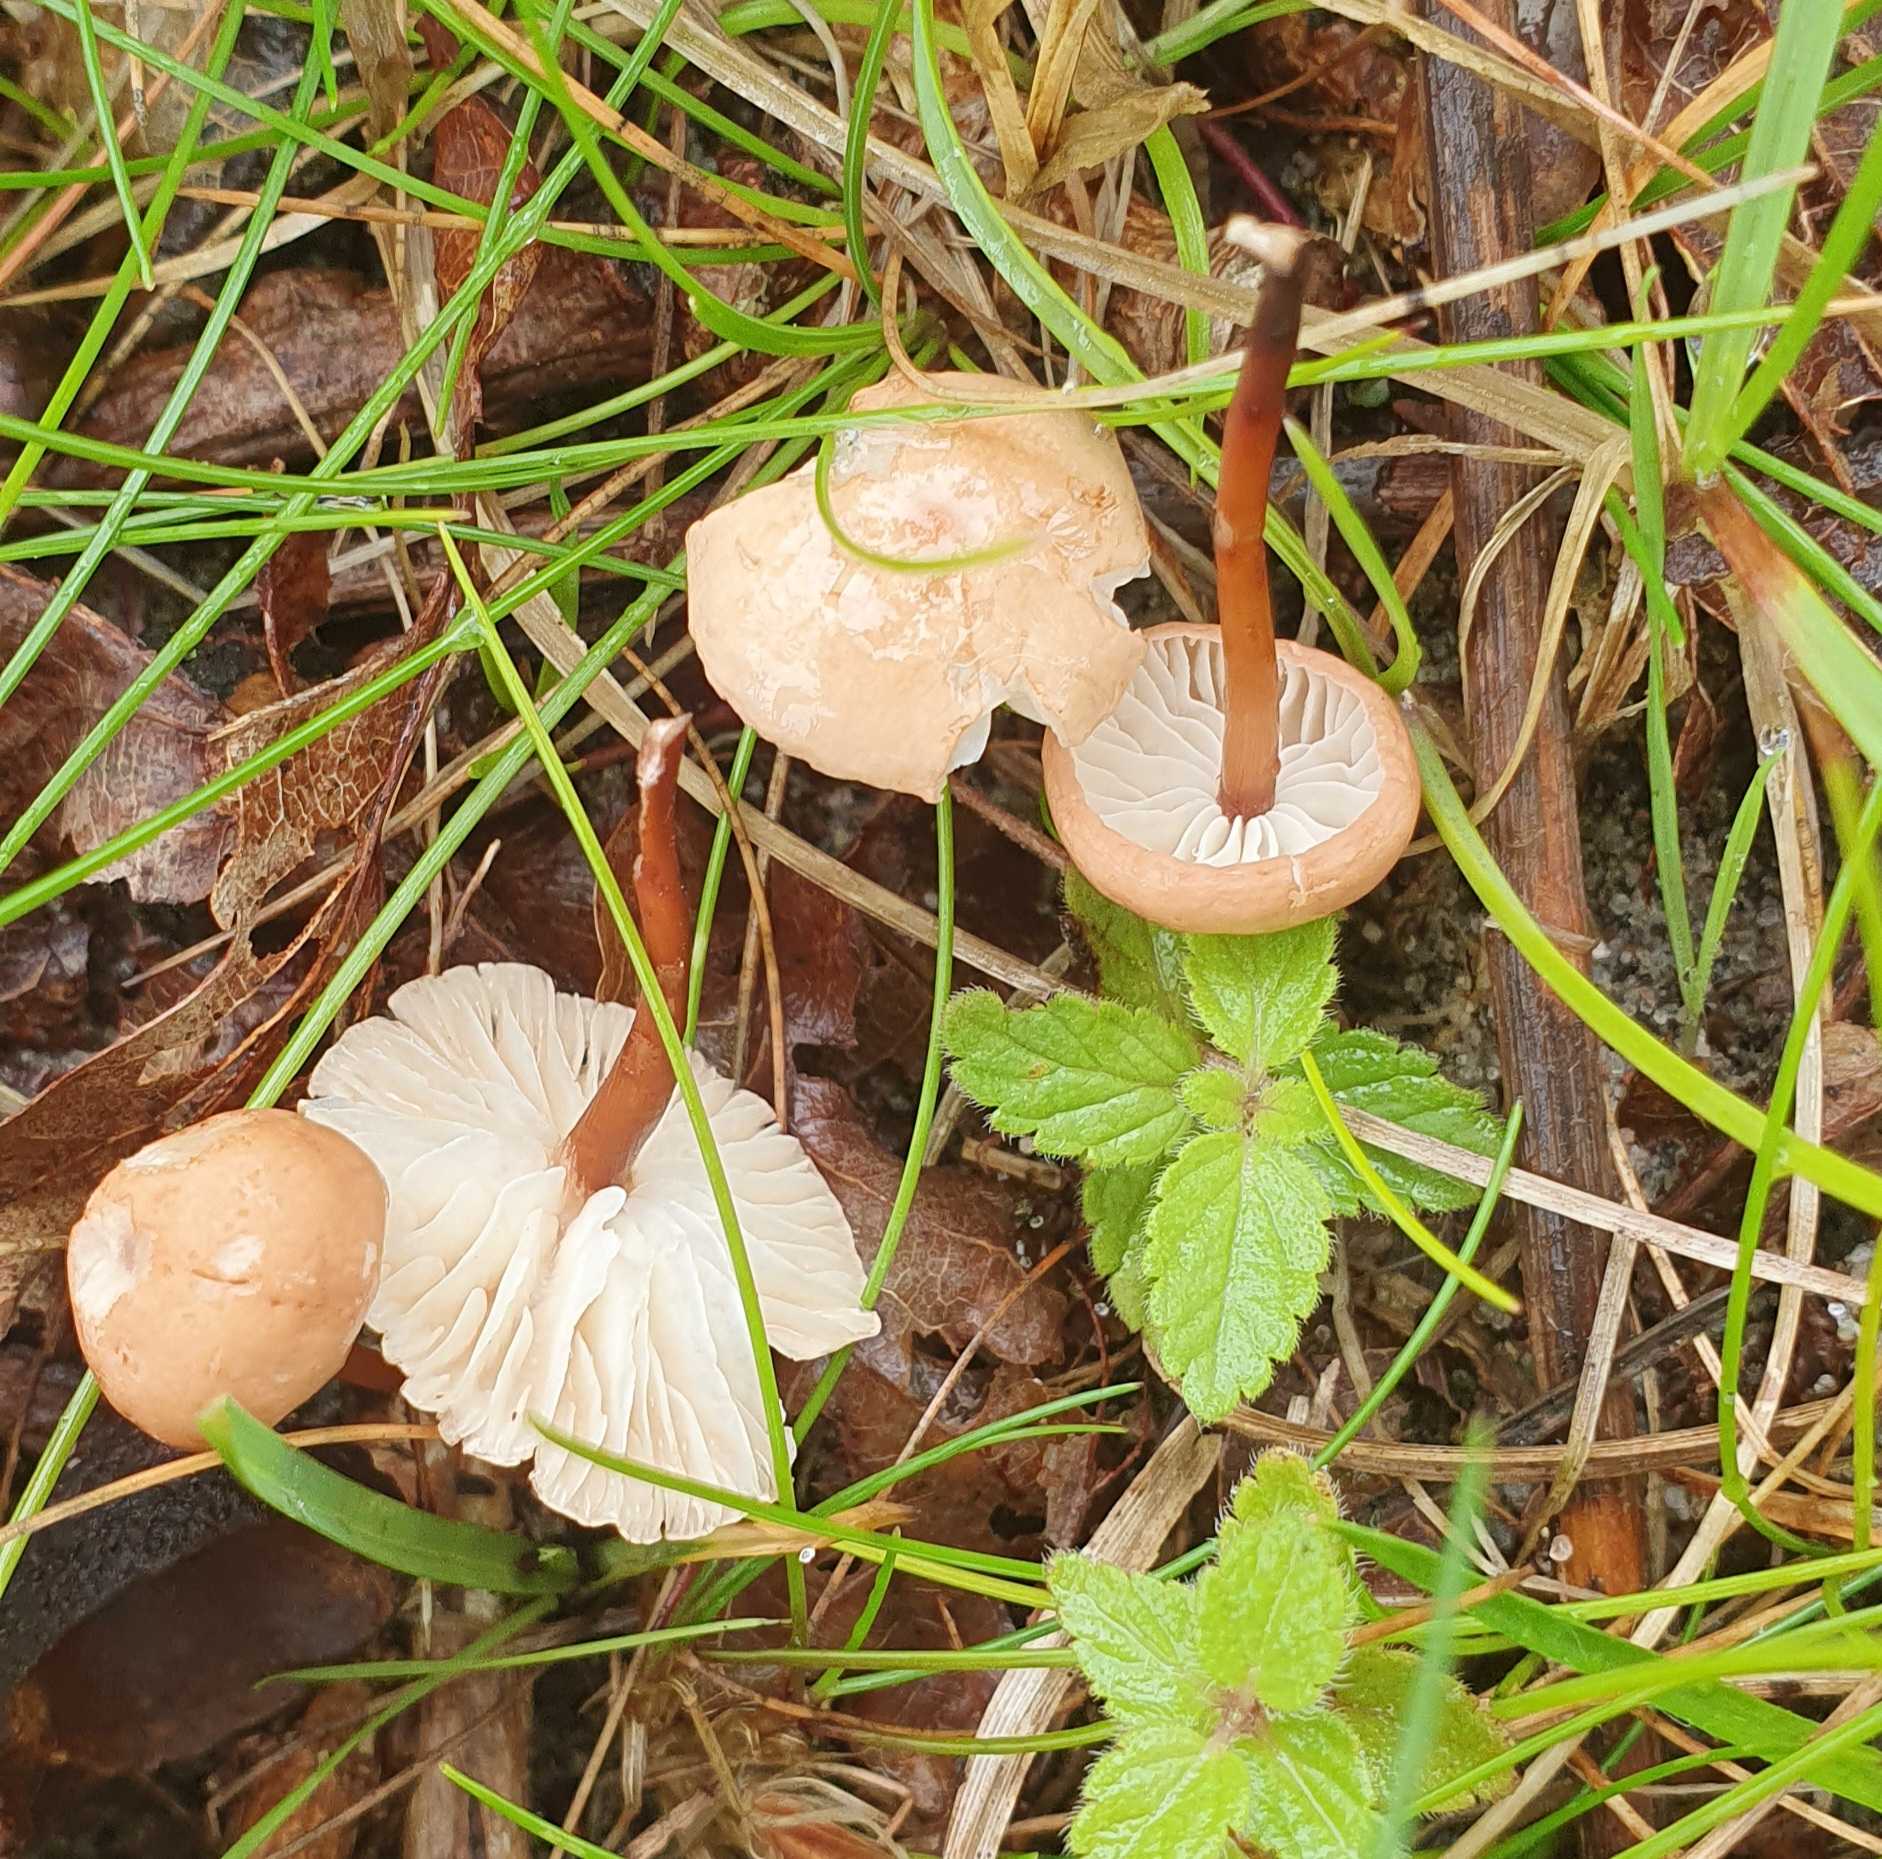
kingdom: Fungi
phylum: Basidiomycota
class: Agaricomycetes
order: Agaricales
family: Omphalotaceae
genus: Mycetinis
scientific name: Mycetinis scorodonius
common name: lille løghat
